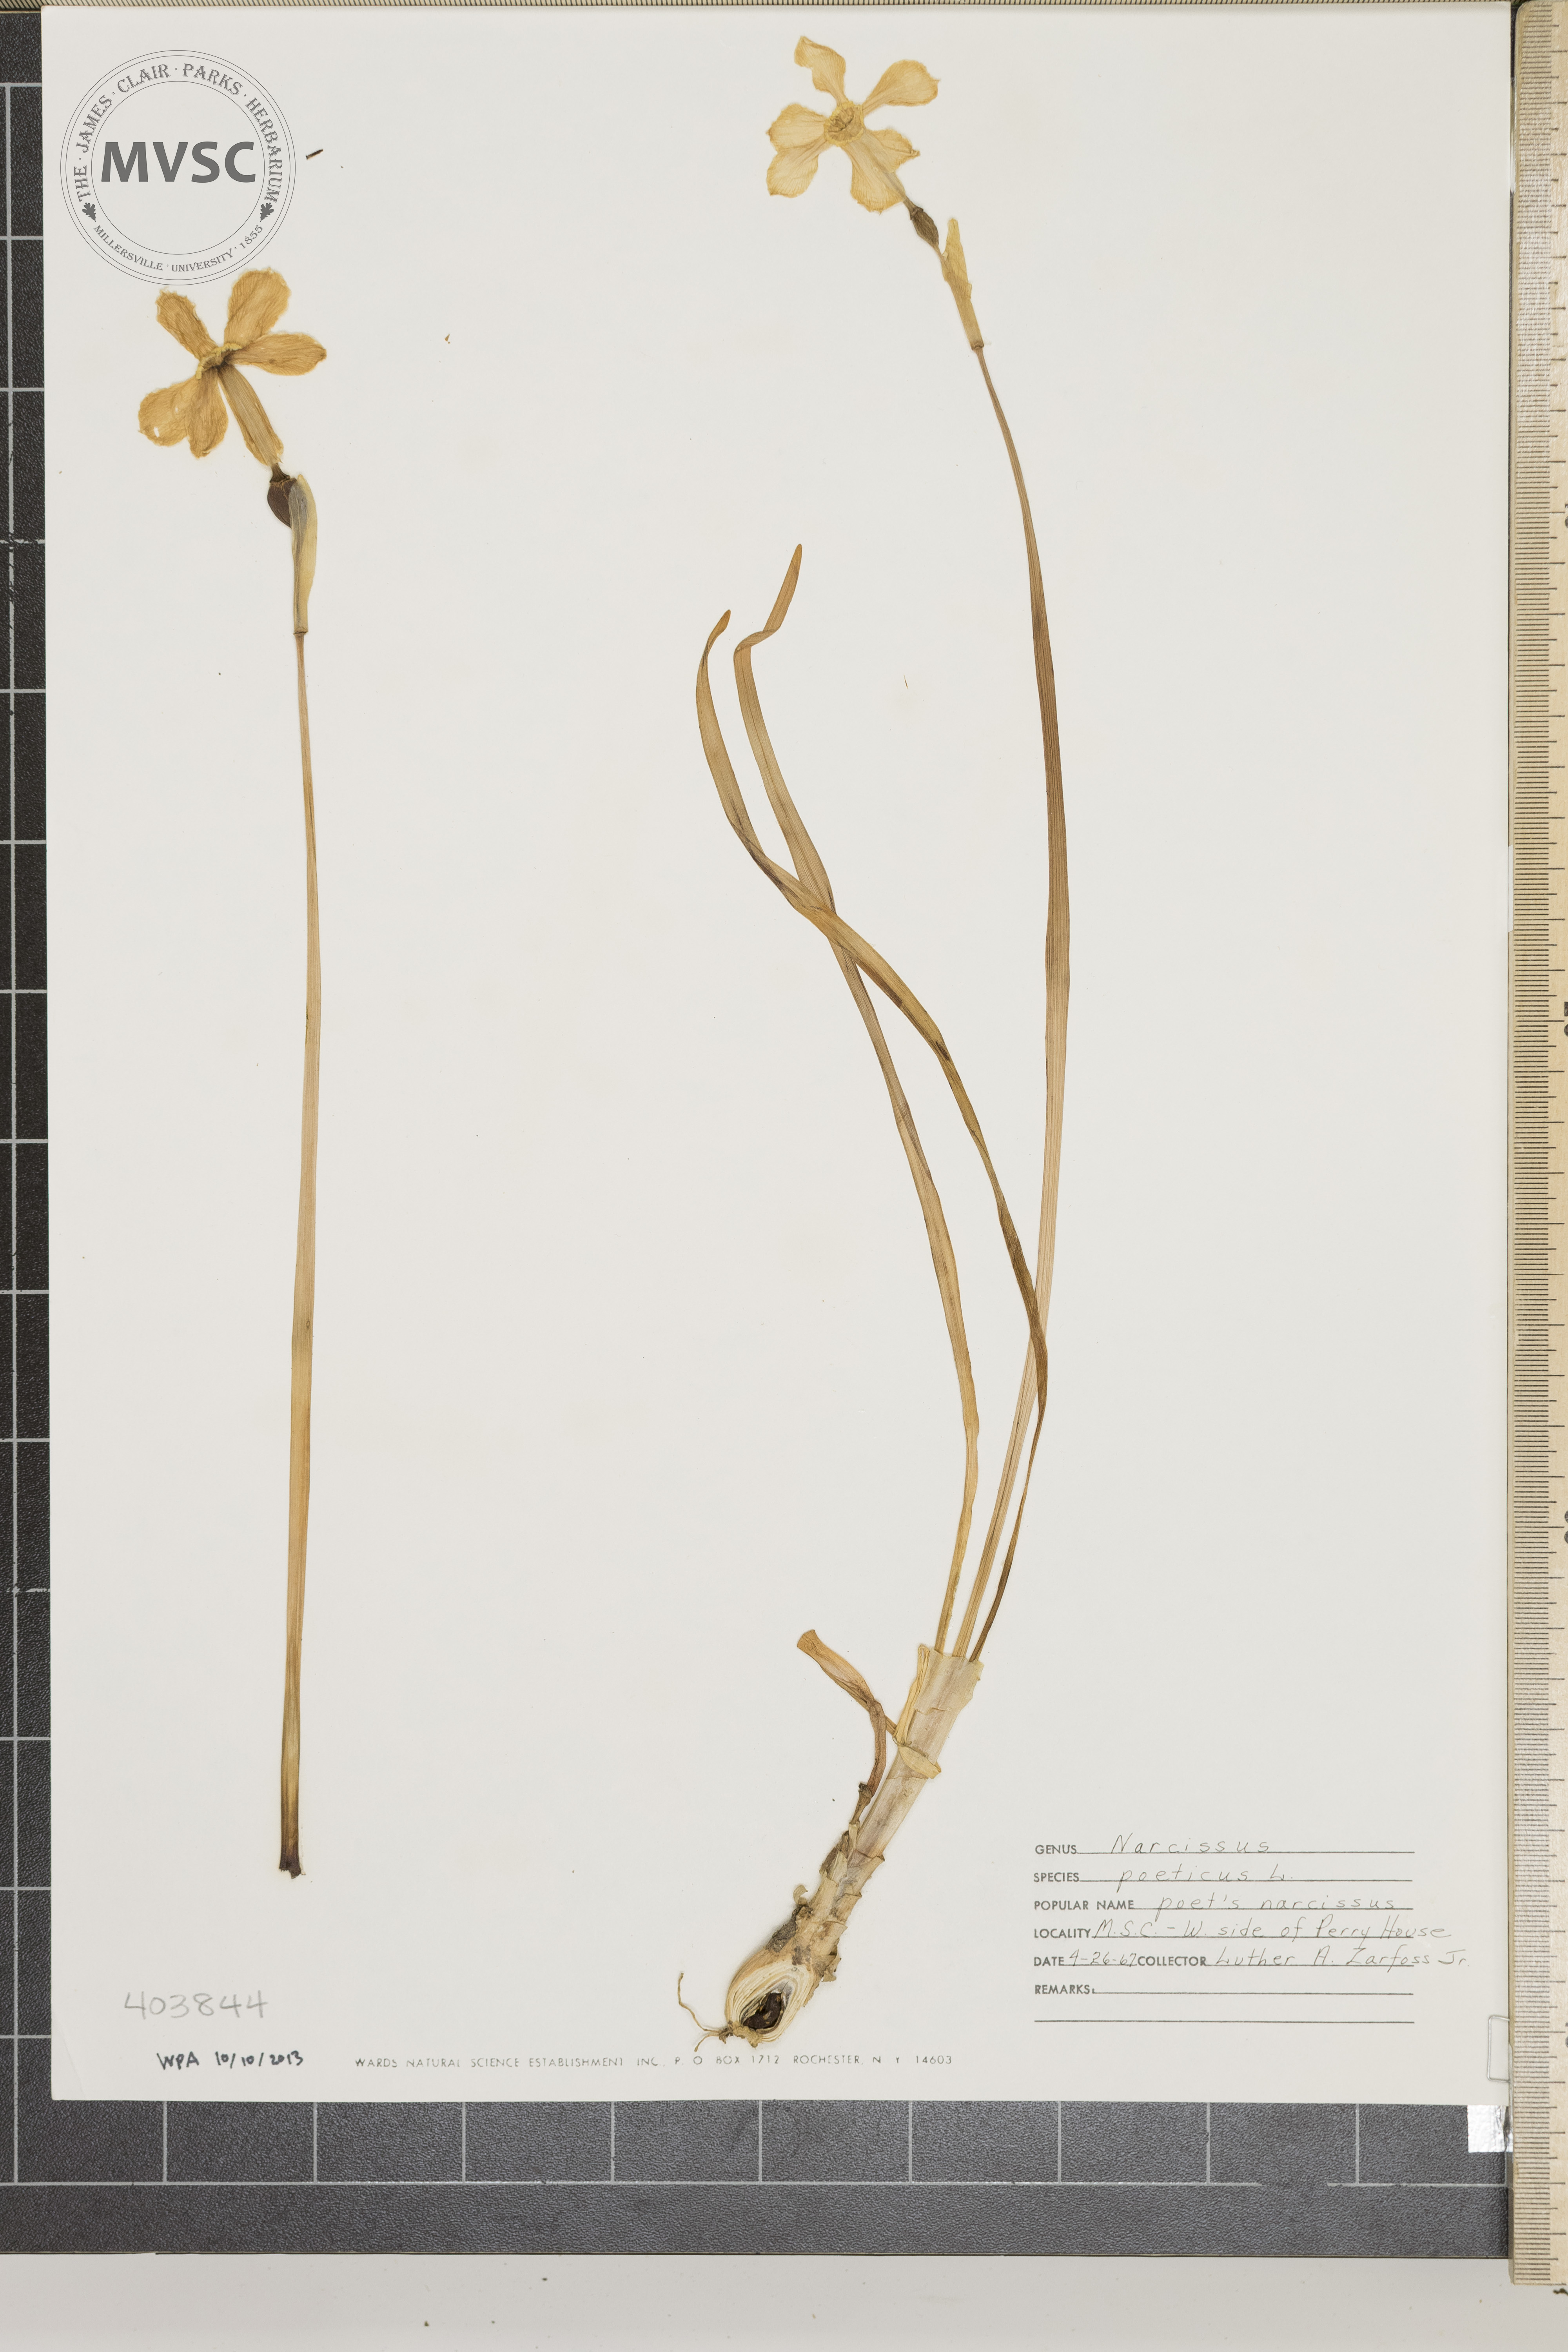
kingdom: Plantae
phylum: Tracheophyta
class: Liliopsida
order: Asparagales
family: Amaryllidaceae
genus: Narcissus
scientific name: Narcissus poeticus
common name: Poet's Narcissus
